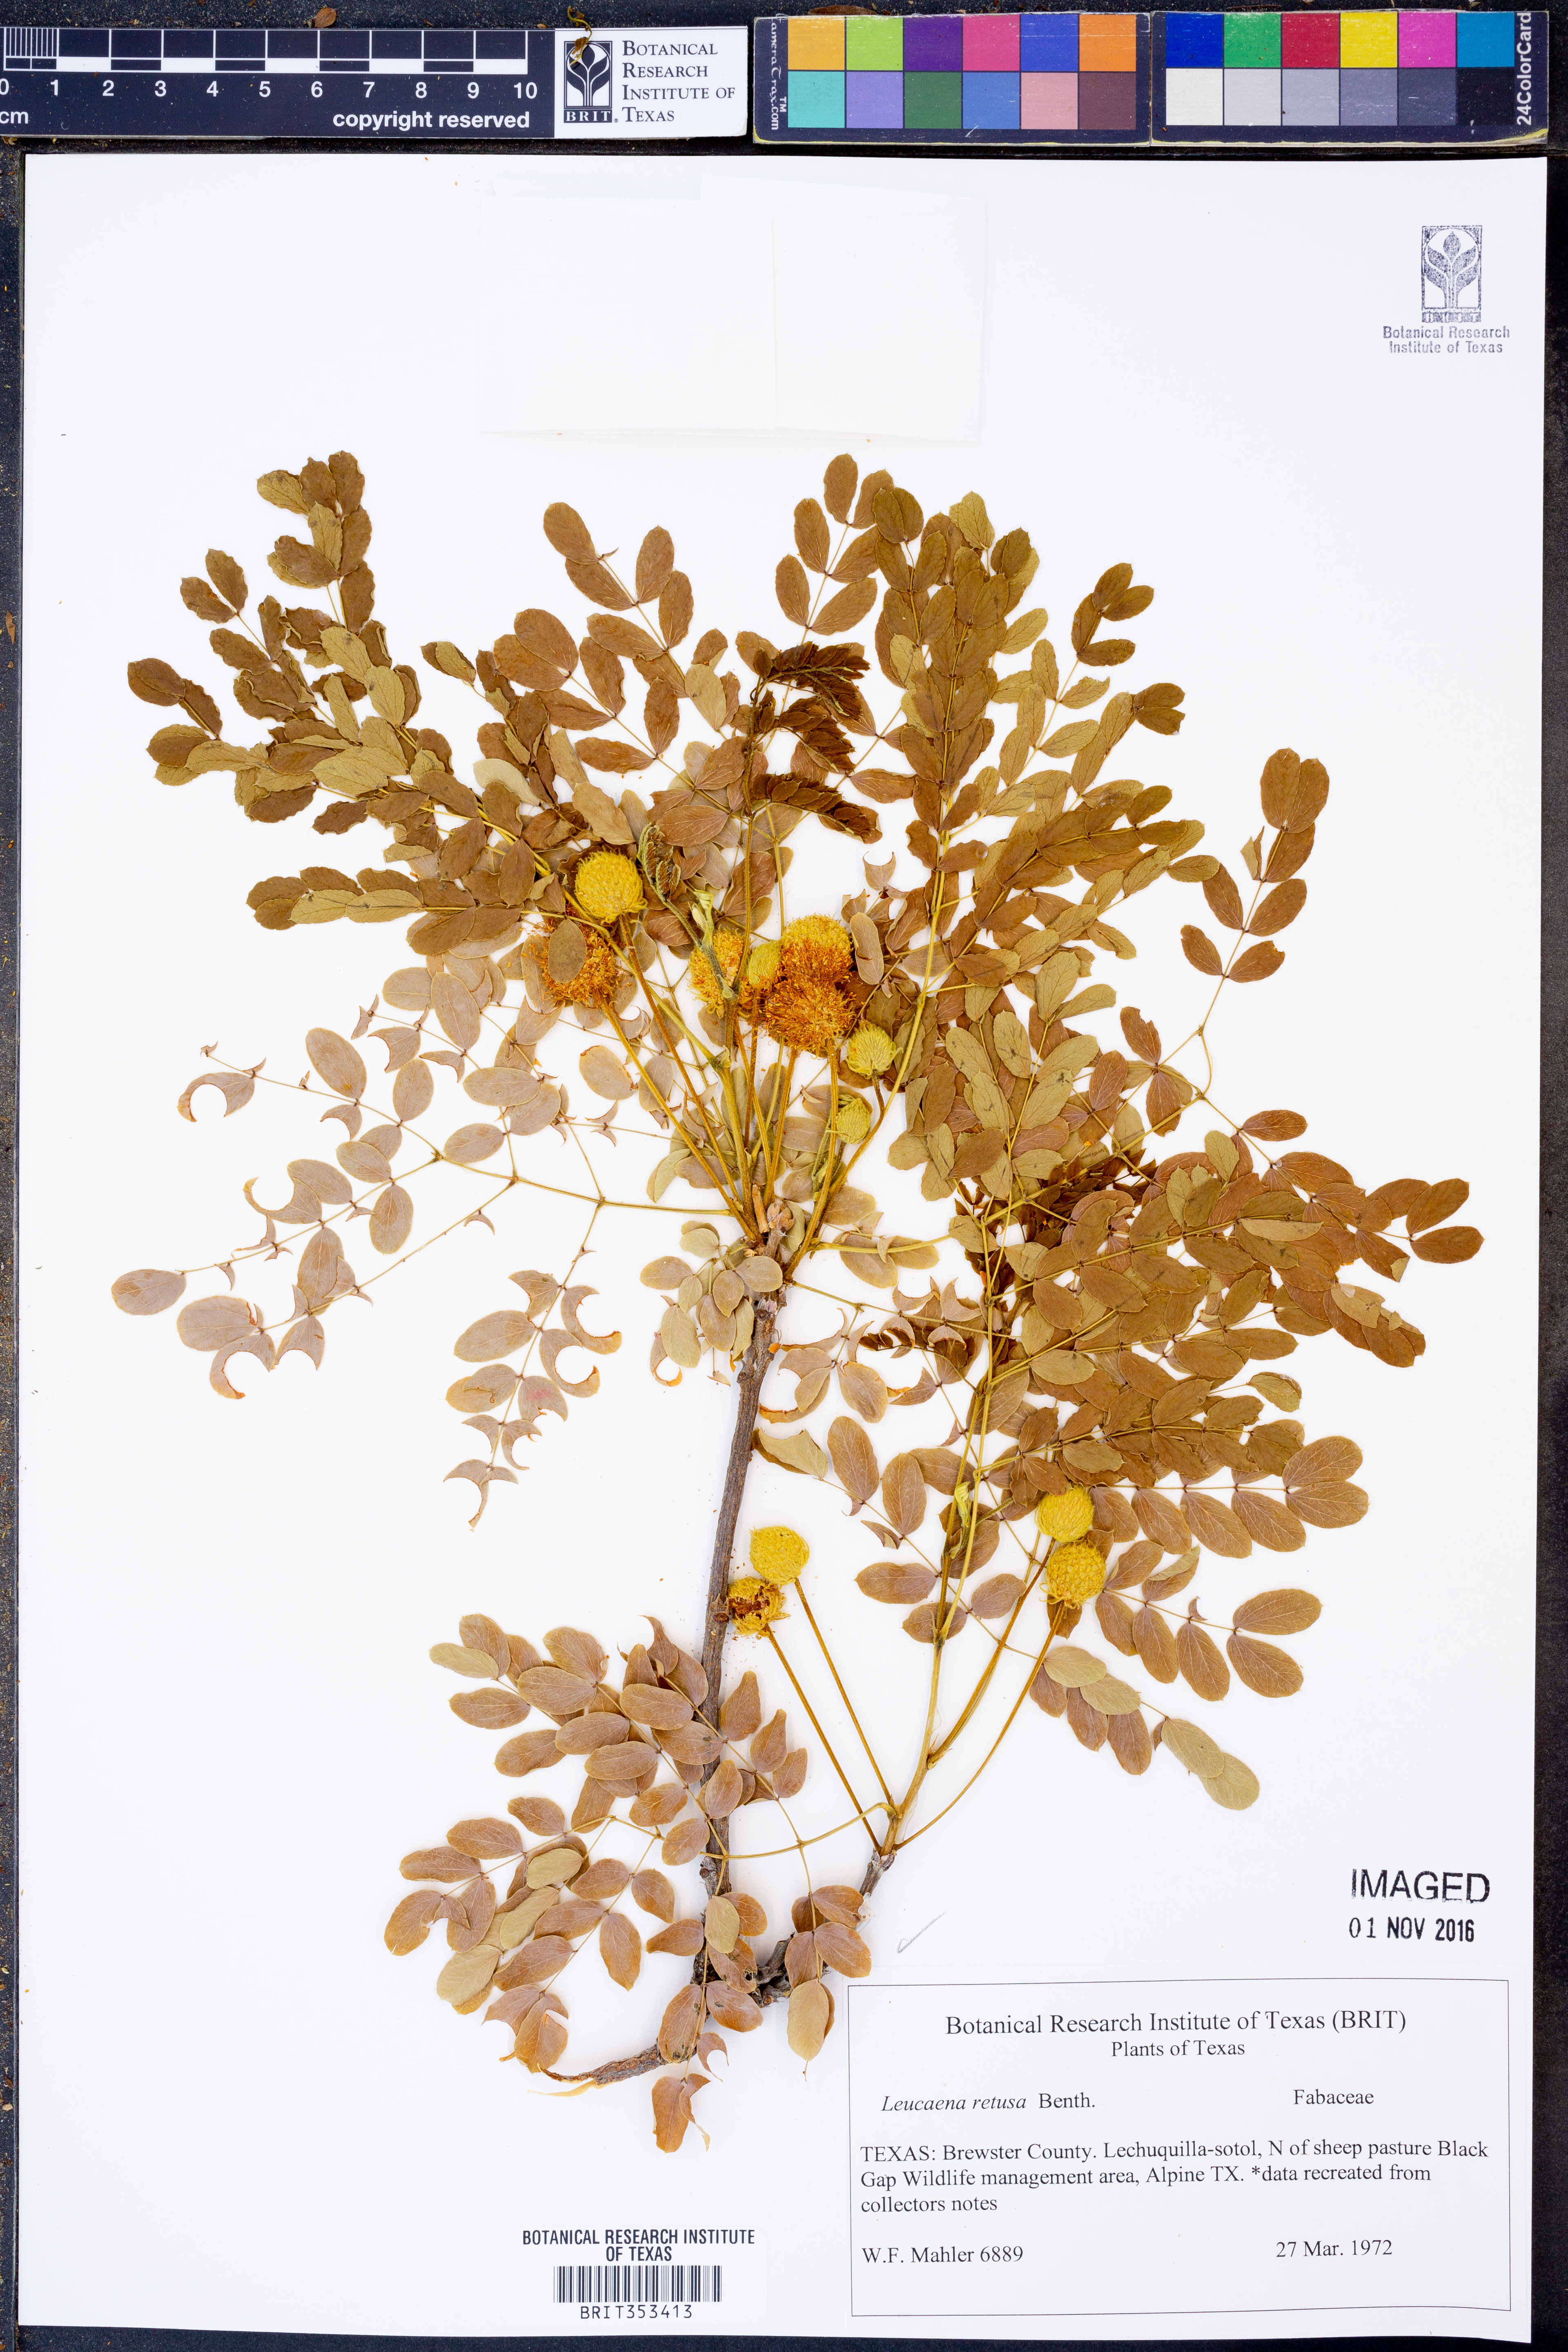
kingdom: Plantae
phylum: Tracheophyta
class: Magnoliopsida
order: Fabales
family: Fabaceae
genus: Leucaena
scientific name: Leucaena retusa
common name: Littleleaf leadtree
